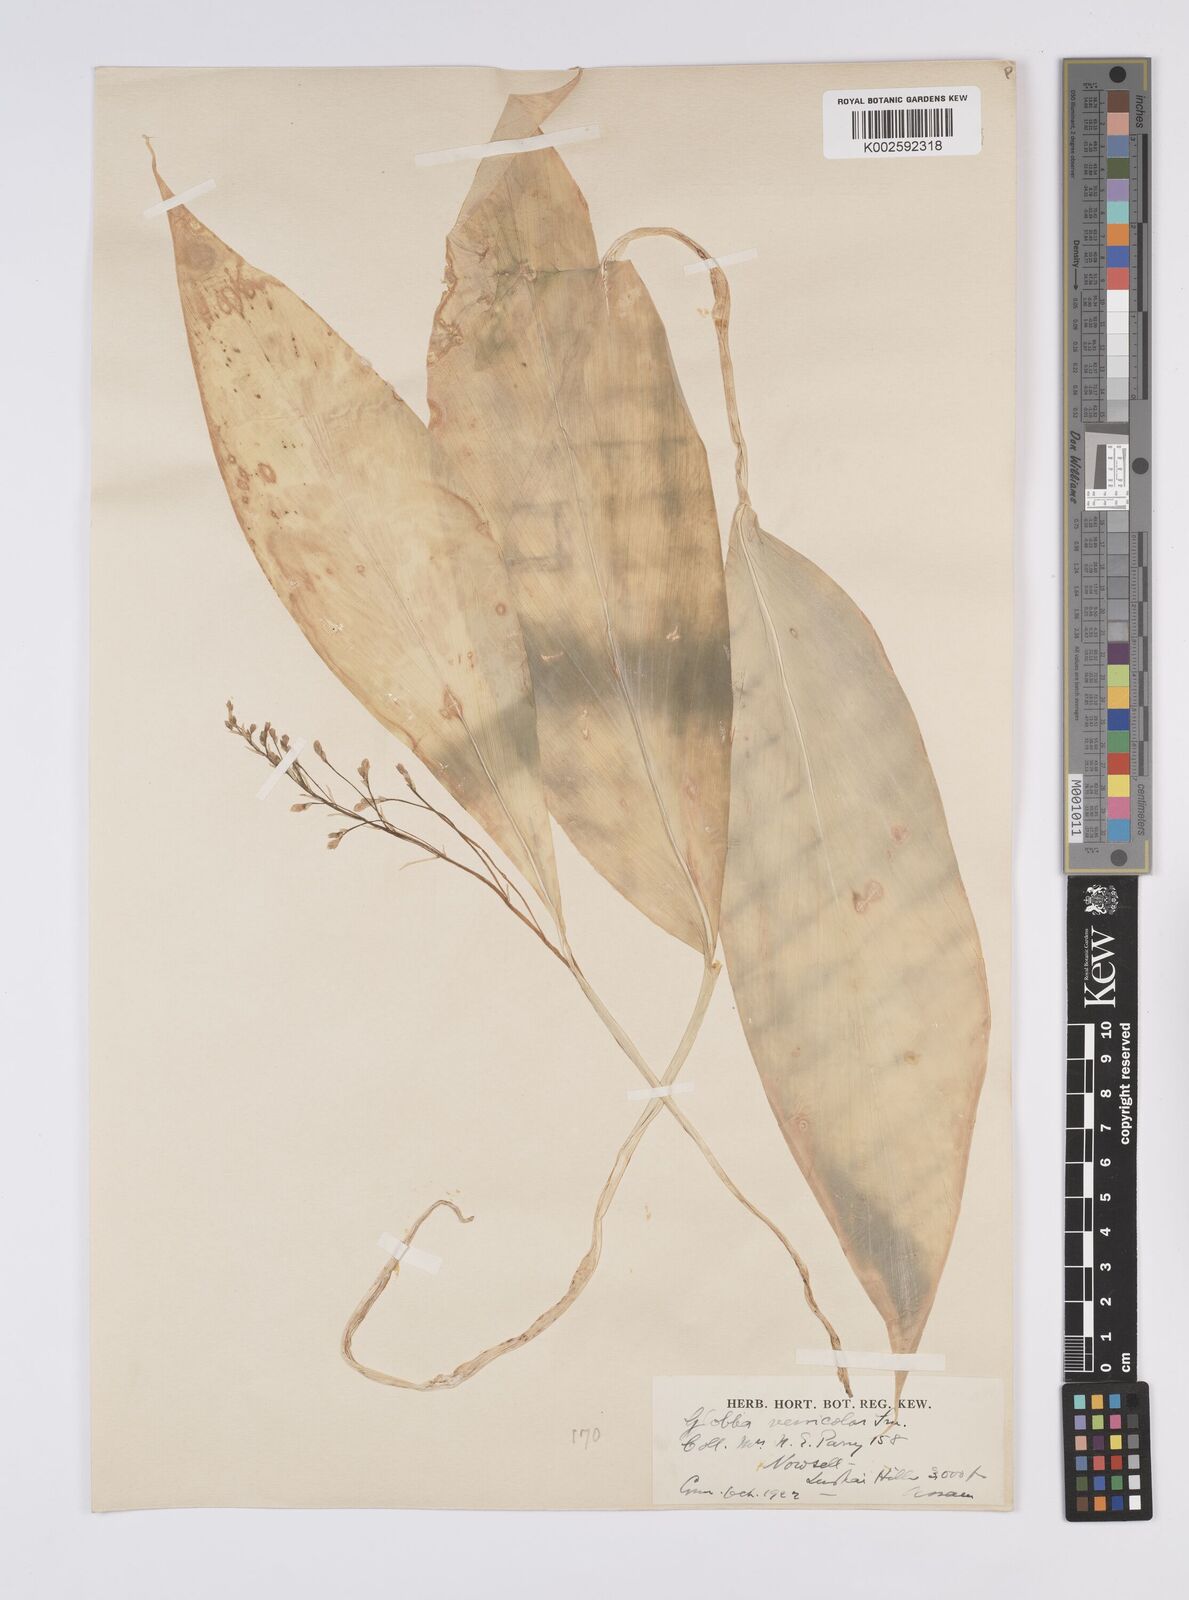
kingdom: Plantae
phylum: Tracheophyta
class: Liliopsida
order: Zingiberales
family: Zingiberaceae
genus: Globba
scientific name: Globba pendula
